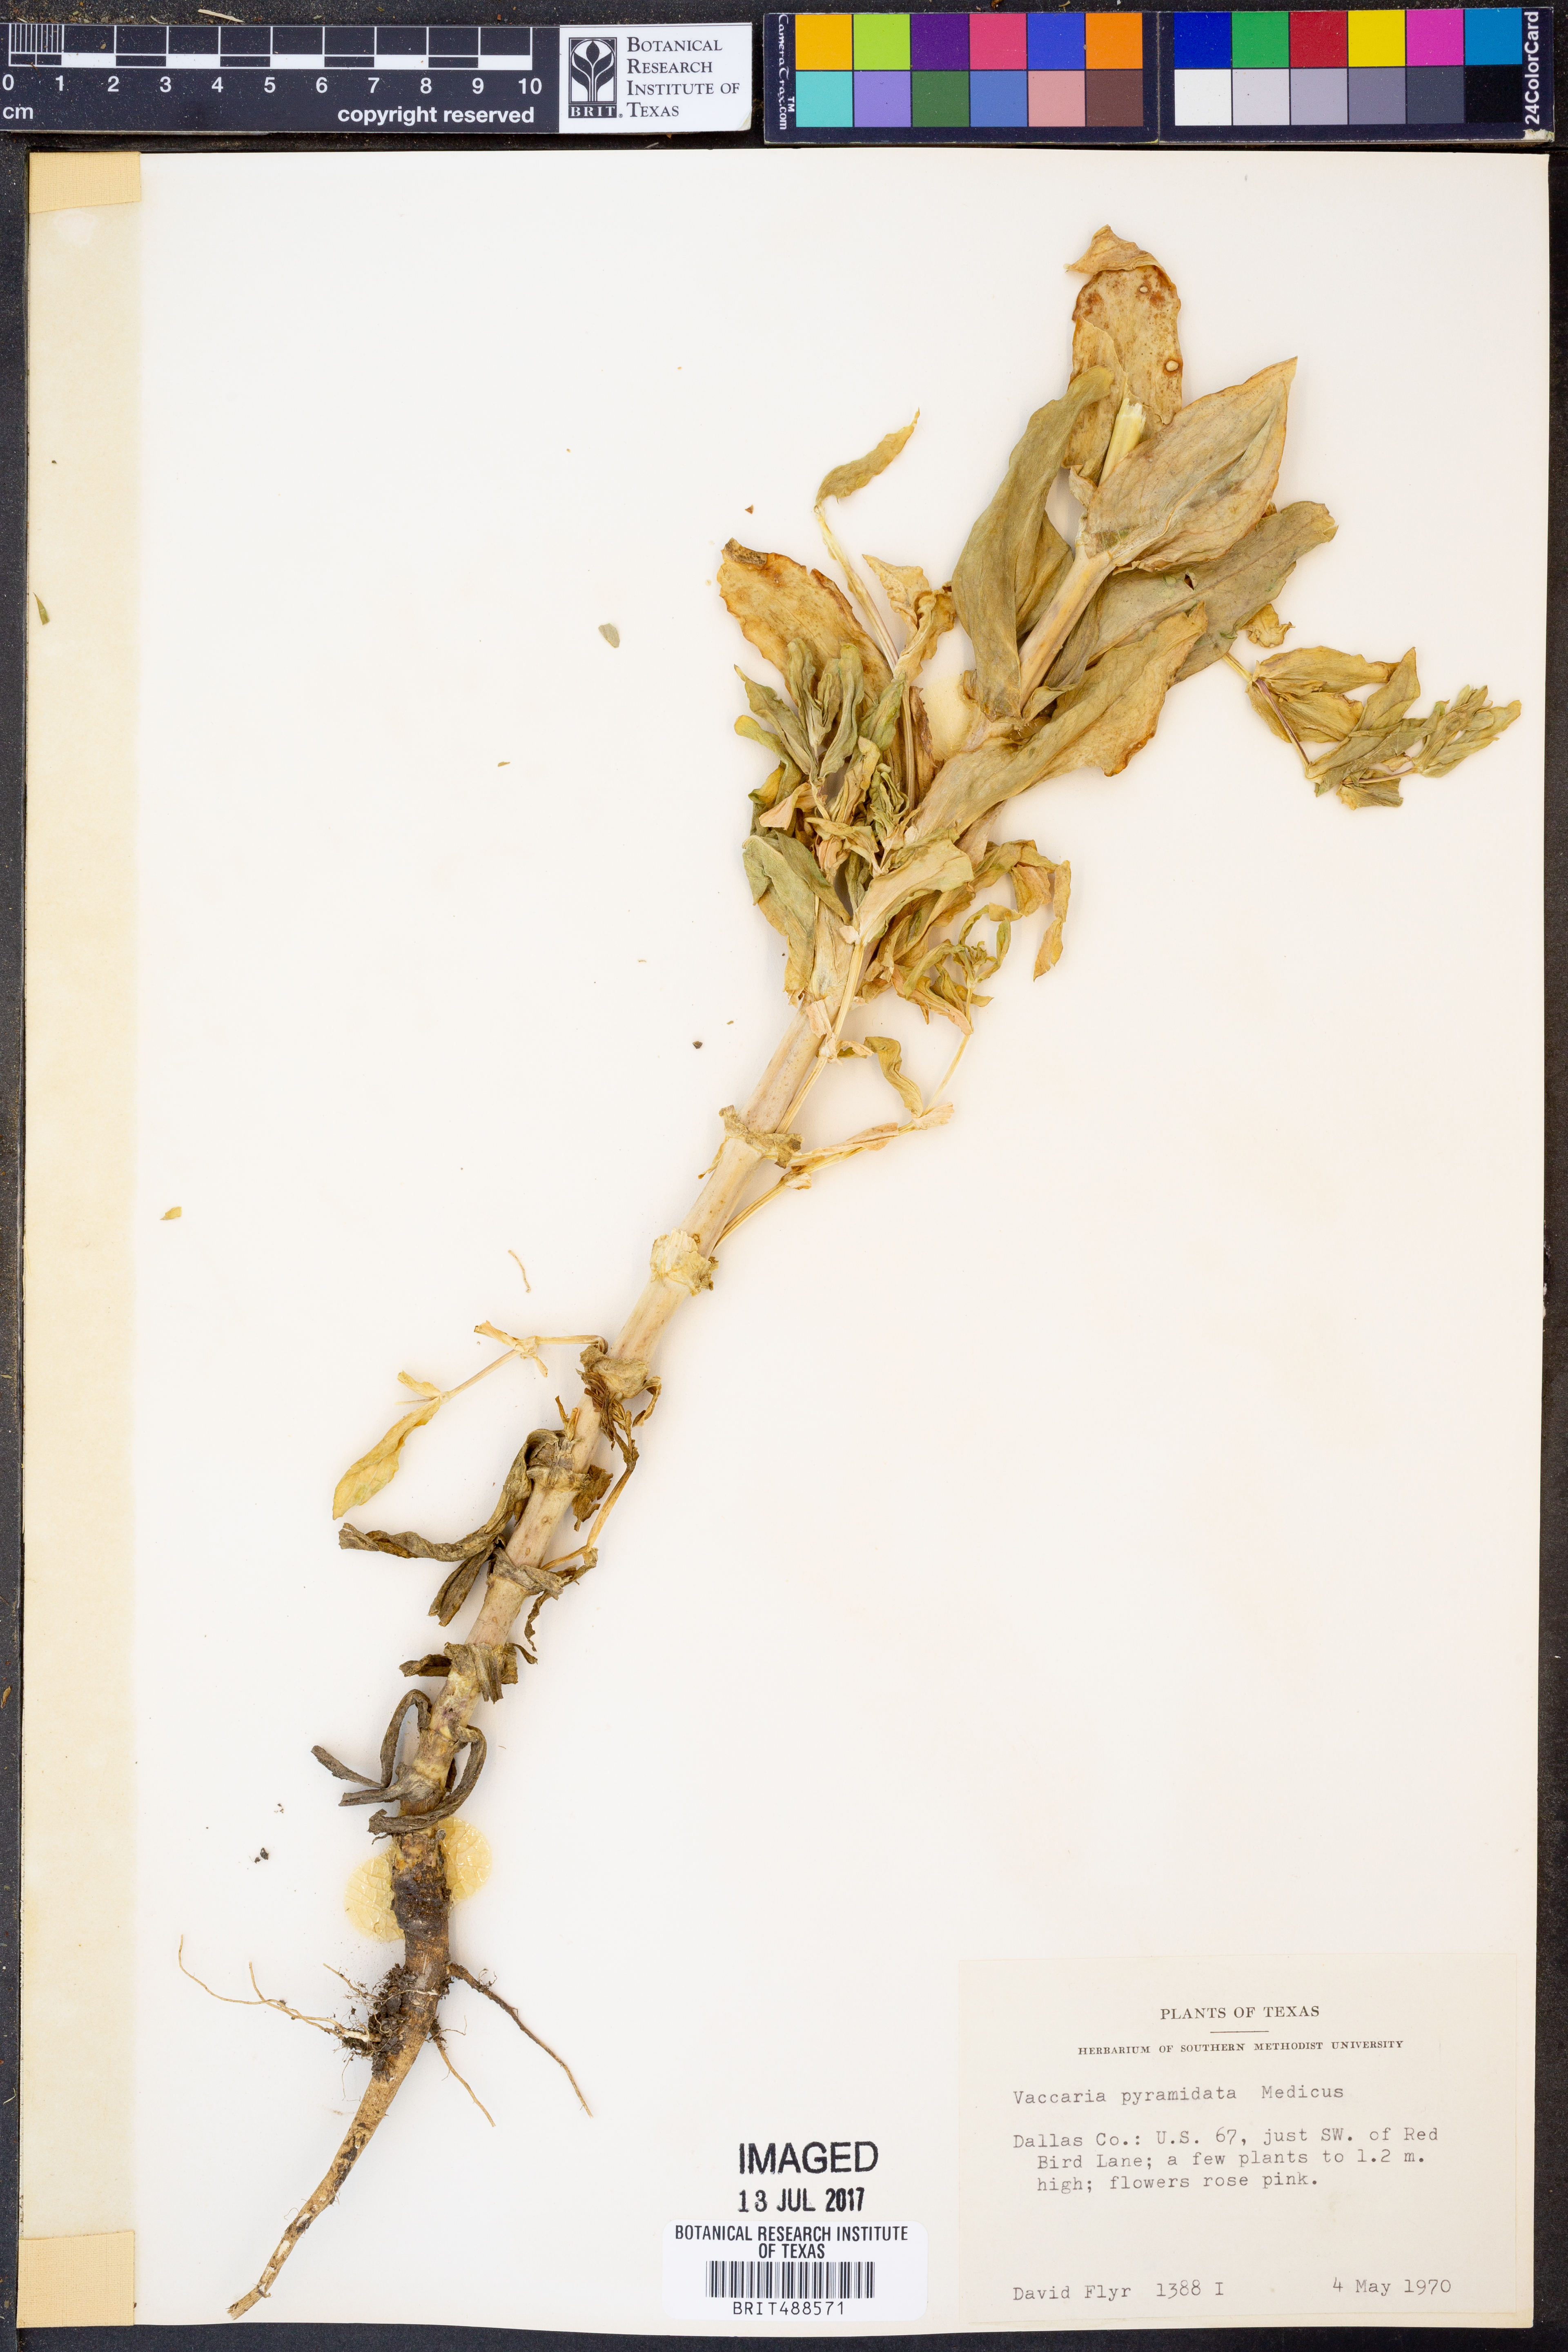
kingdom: Plantae
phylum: Tracheophyta
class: Magnoliopsida
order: Caryophyllales
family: Caryophyllaceae
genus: Gypsophila
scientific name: Gypsophila vaccaria
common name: Cow soapwort
